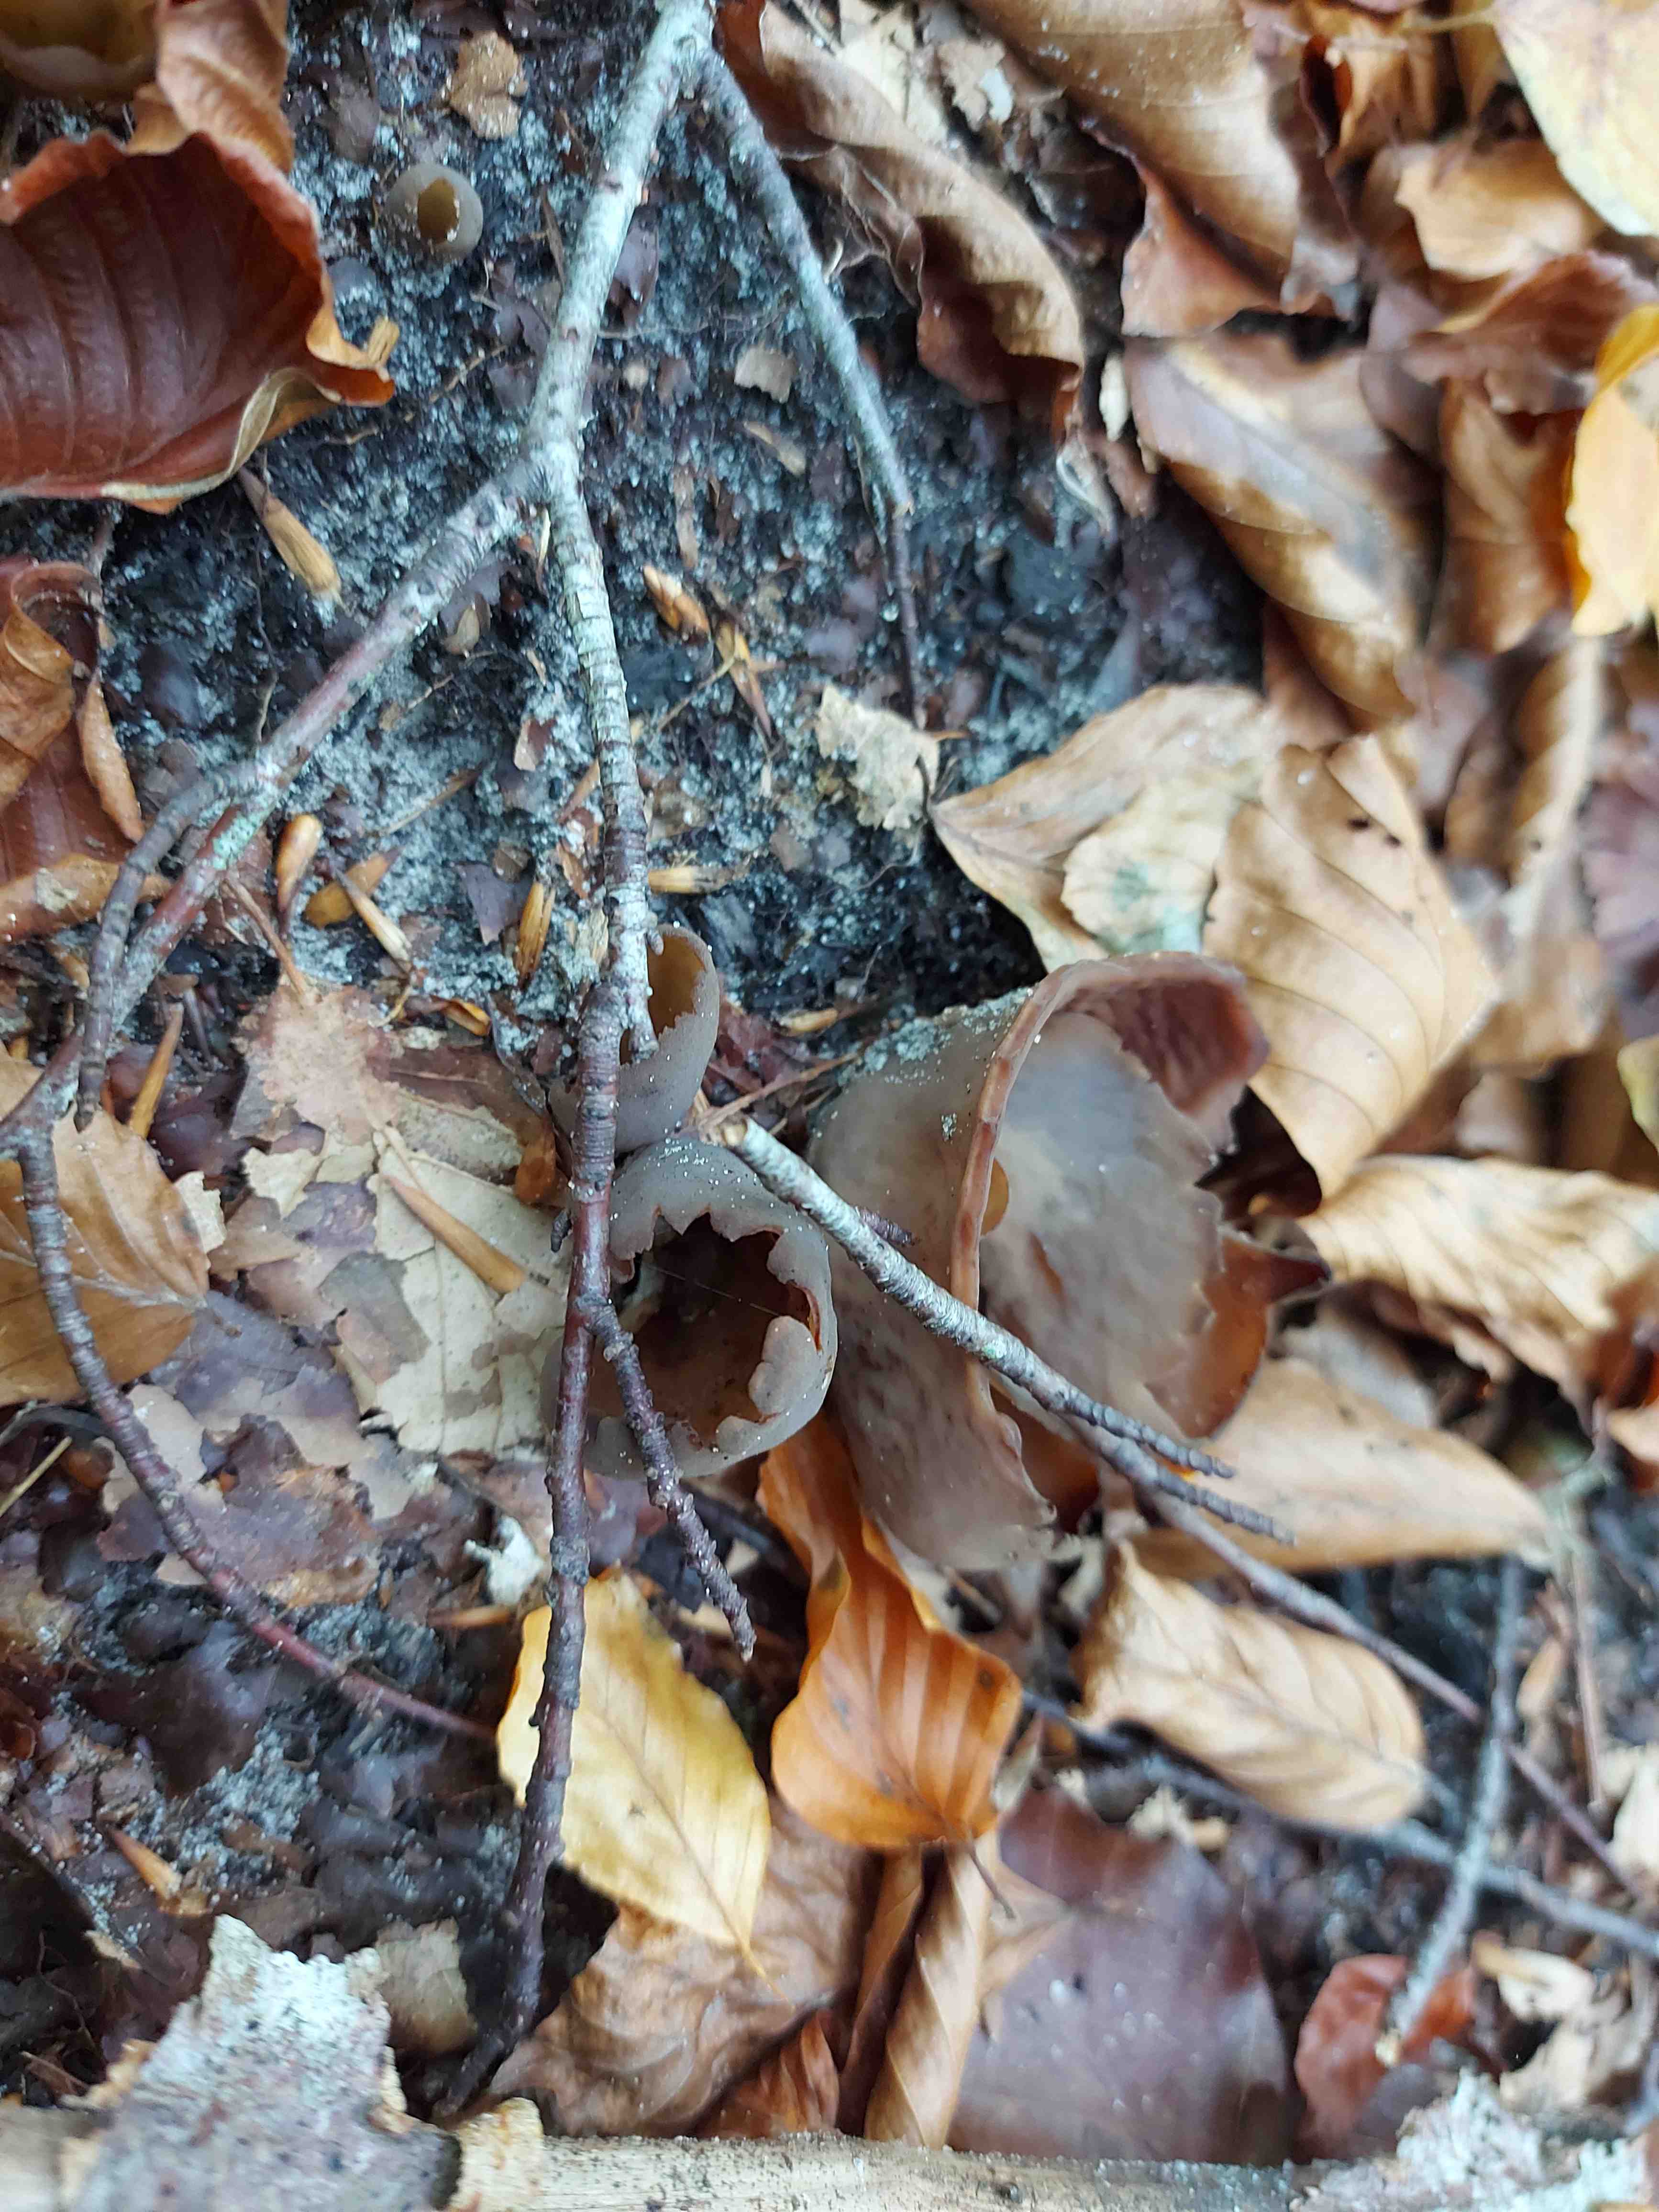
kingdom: Fungi
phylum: Ascomycota
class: Pezizomycetes
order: Pezizales
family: Otideaceae
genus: Otidea
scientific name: Otidea bufonia
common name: brun ørebæger
